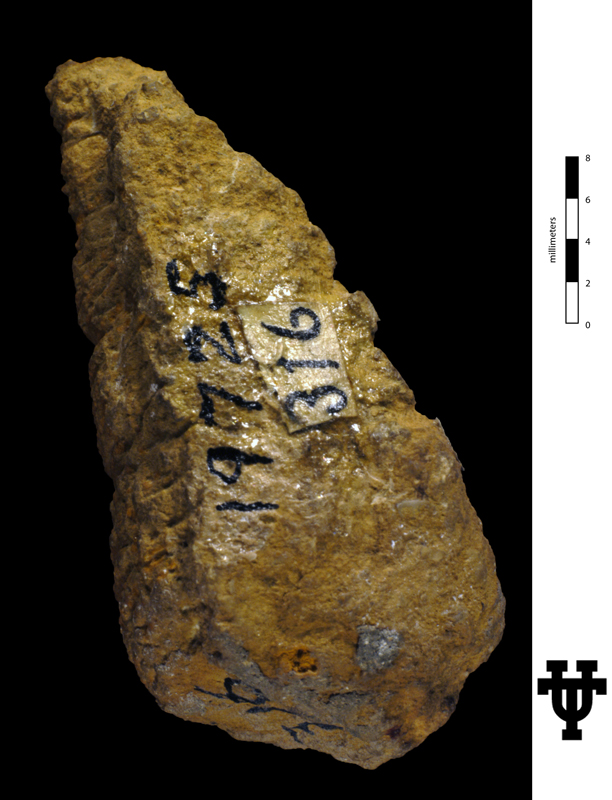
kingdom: Animalia
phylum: Mollusca
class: Gastropoda
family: Turritellidae
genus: Turritella
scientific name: Turritella seriatimgranulata
